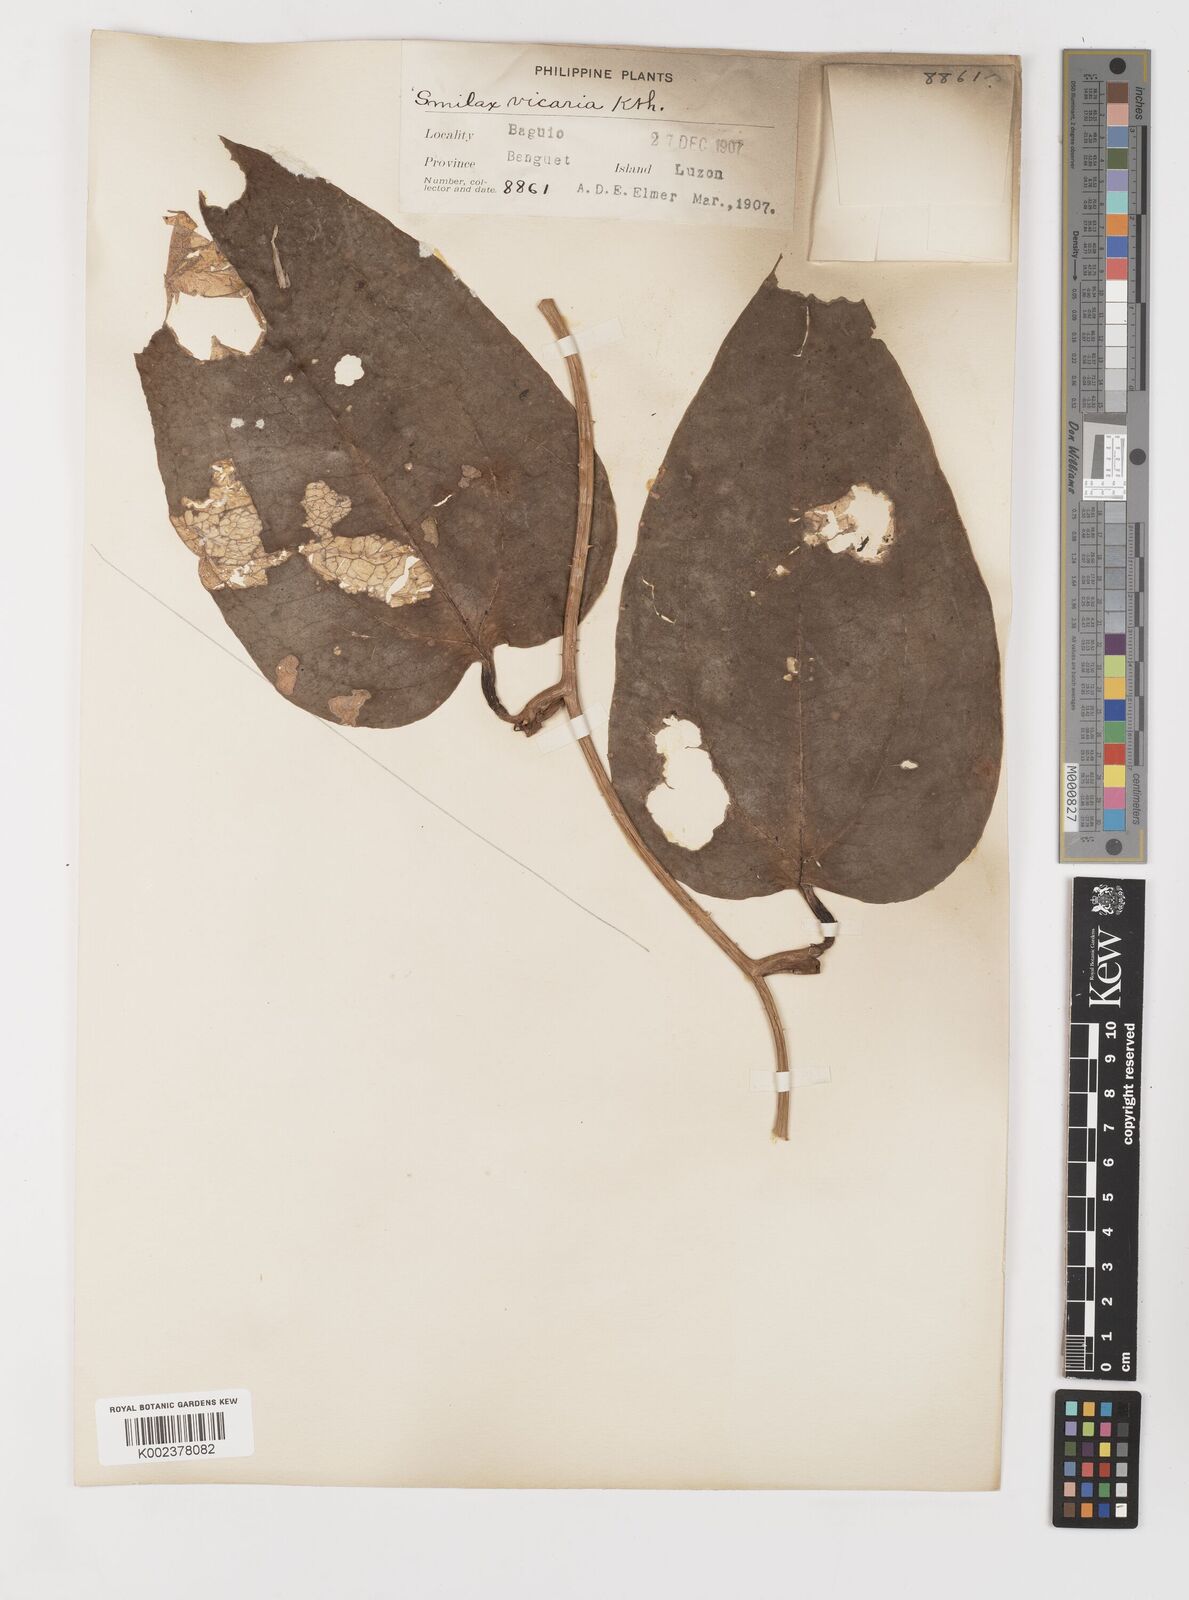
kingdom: Plantae
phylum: Tracheophyta
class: Liliopsida
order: Liliales
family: Smilacaceae
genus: Smilax
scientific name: Smilax leucophylla
